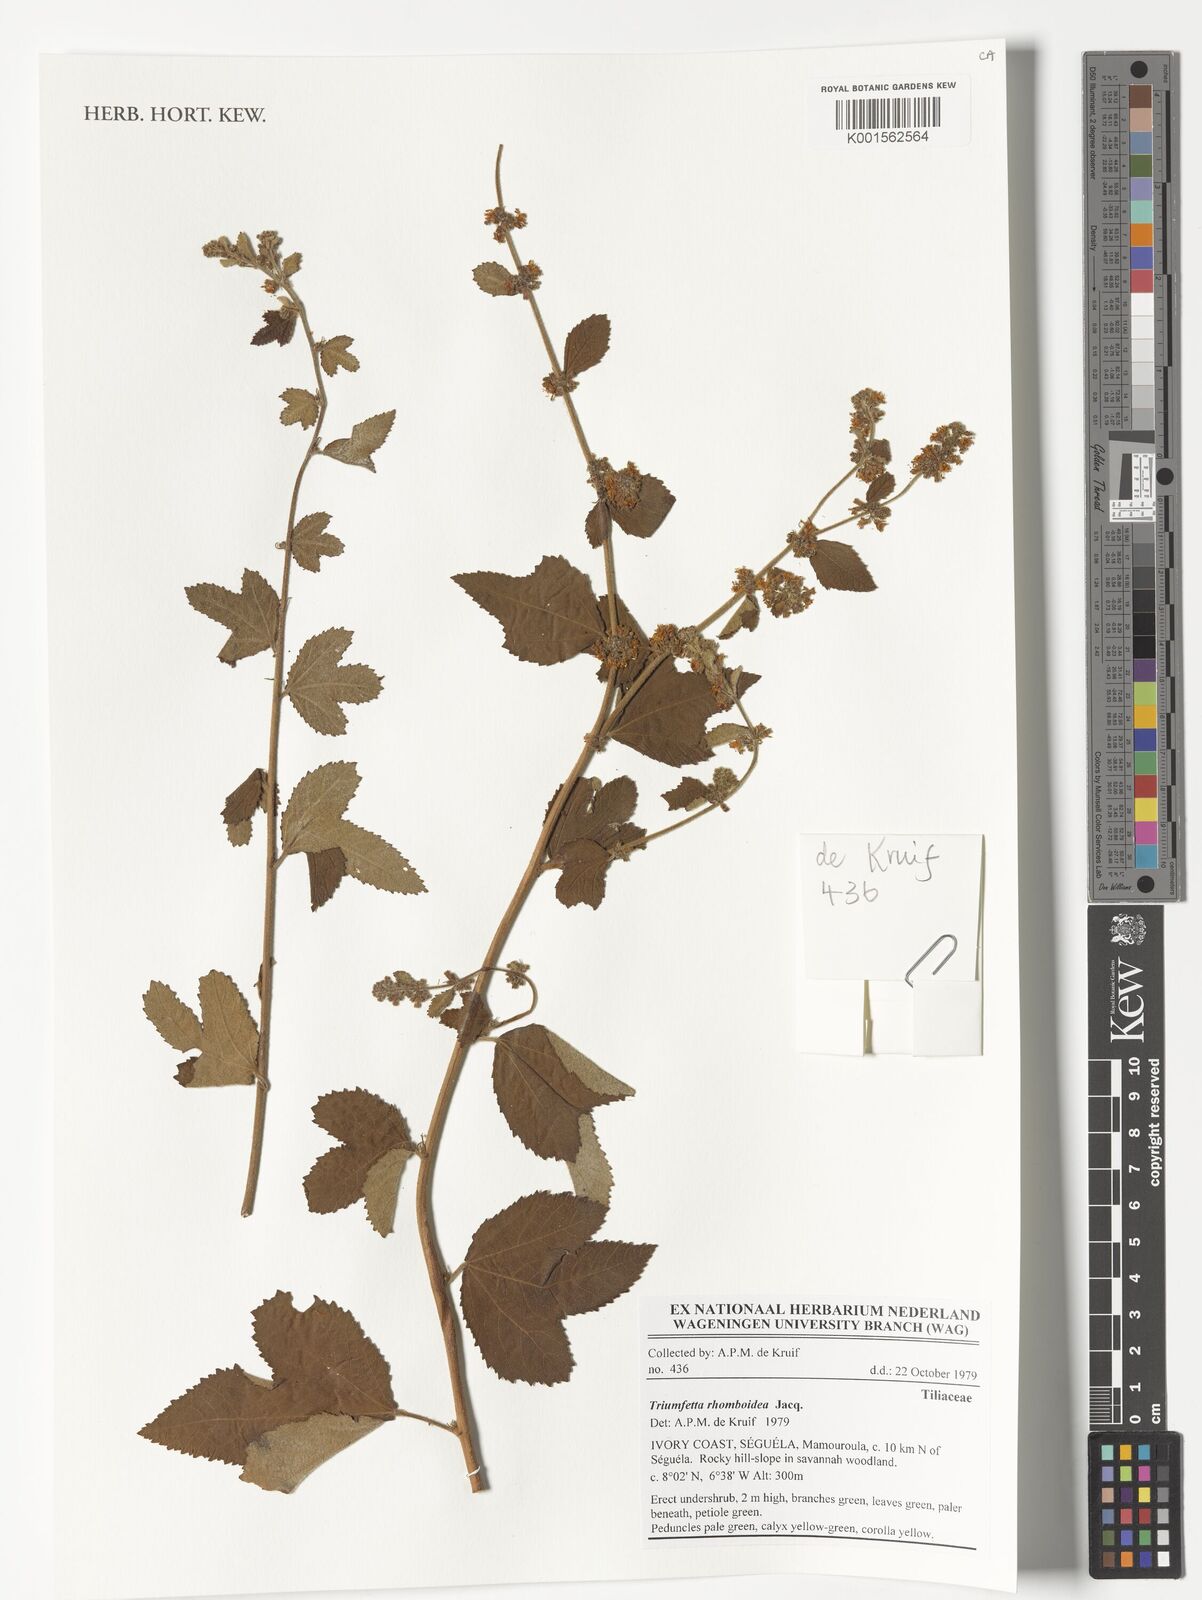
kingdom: Plantae
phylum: Tracheophyta
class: Magnoliopsida
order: Malvales
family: Malvaceae
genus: Triumfetta
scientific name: Triumfetta rhomboidea
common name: Diamond burbark
